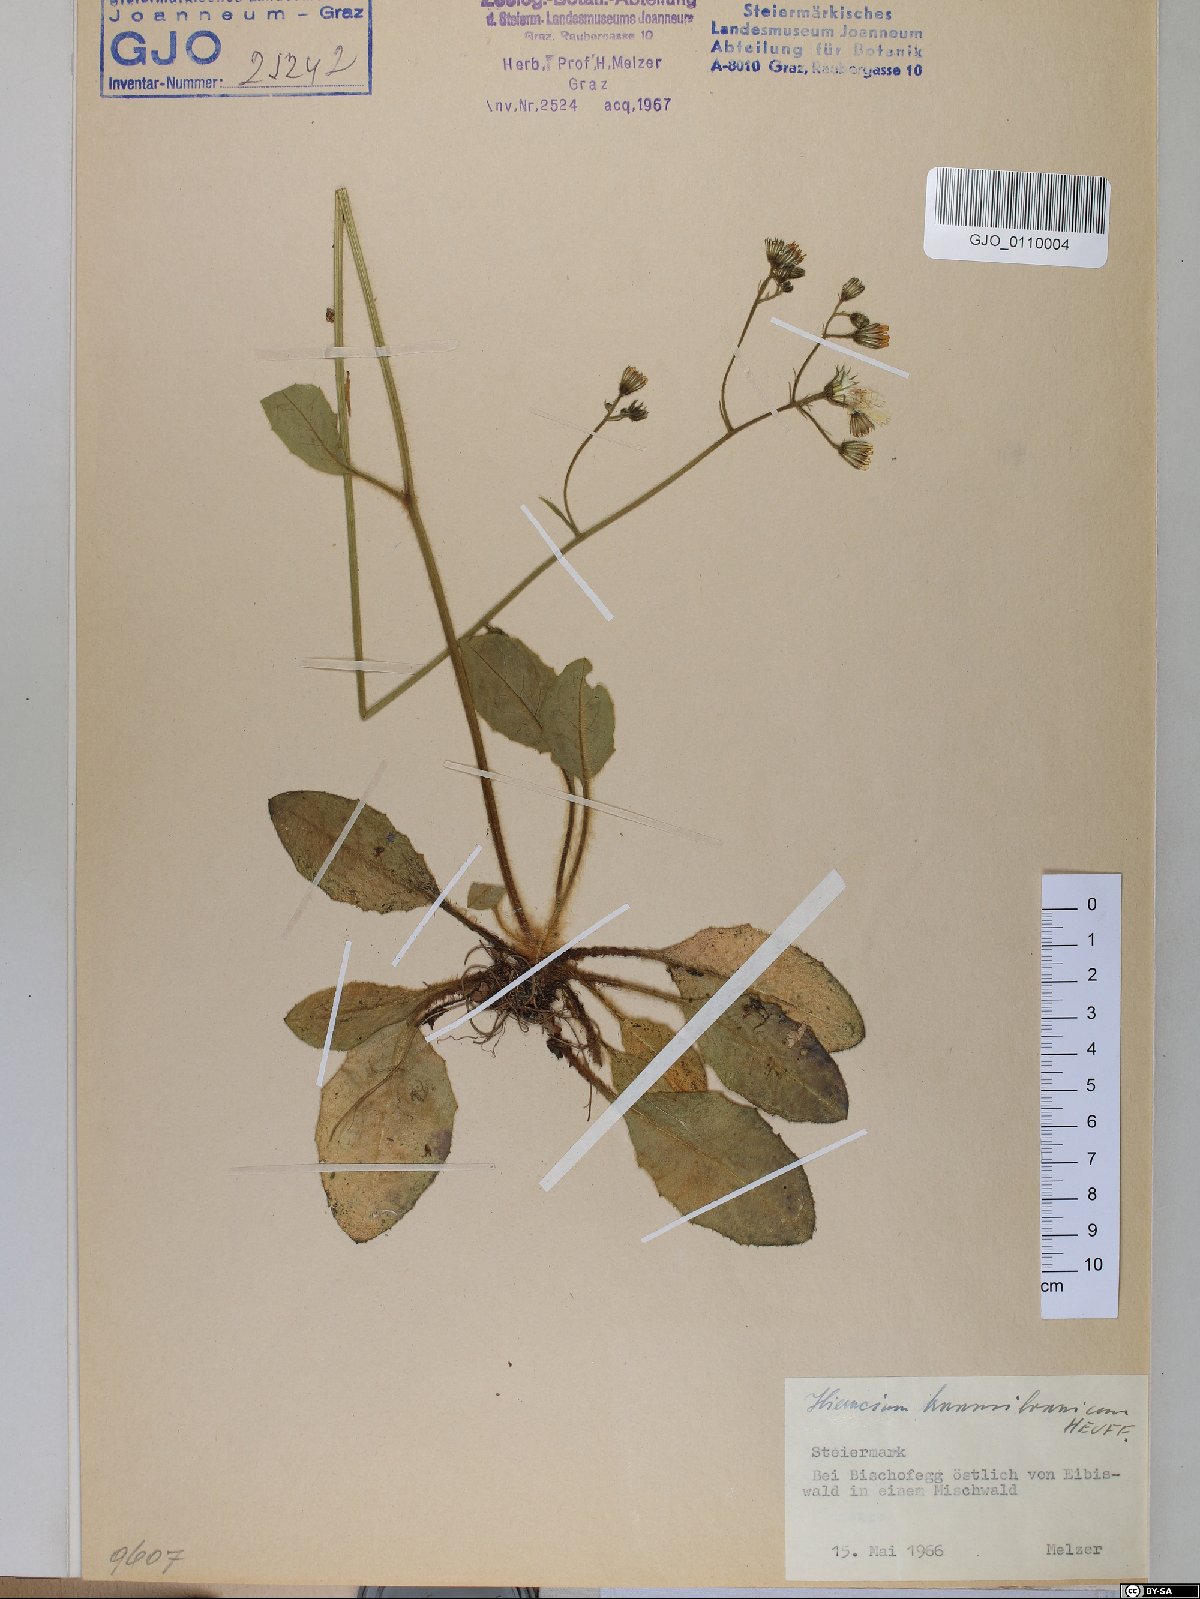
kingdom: Plantae
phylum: Tracheophyta
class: Magnoliopsida
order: Asterales
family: Asteraceae
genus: Hieracium
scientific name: Hieracium transylvanicum
